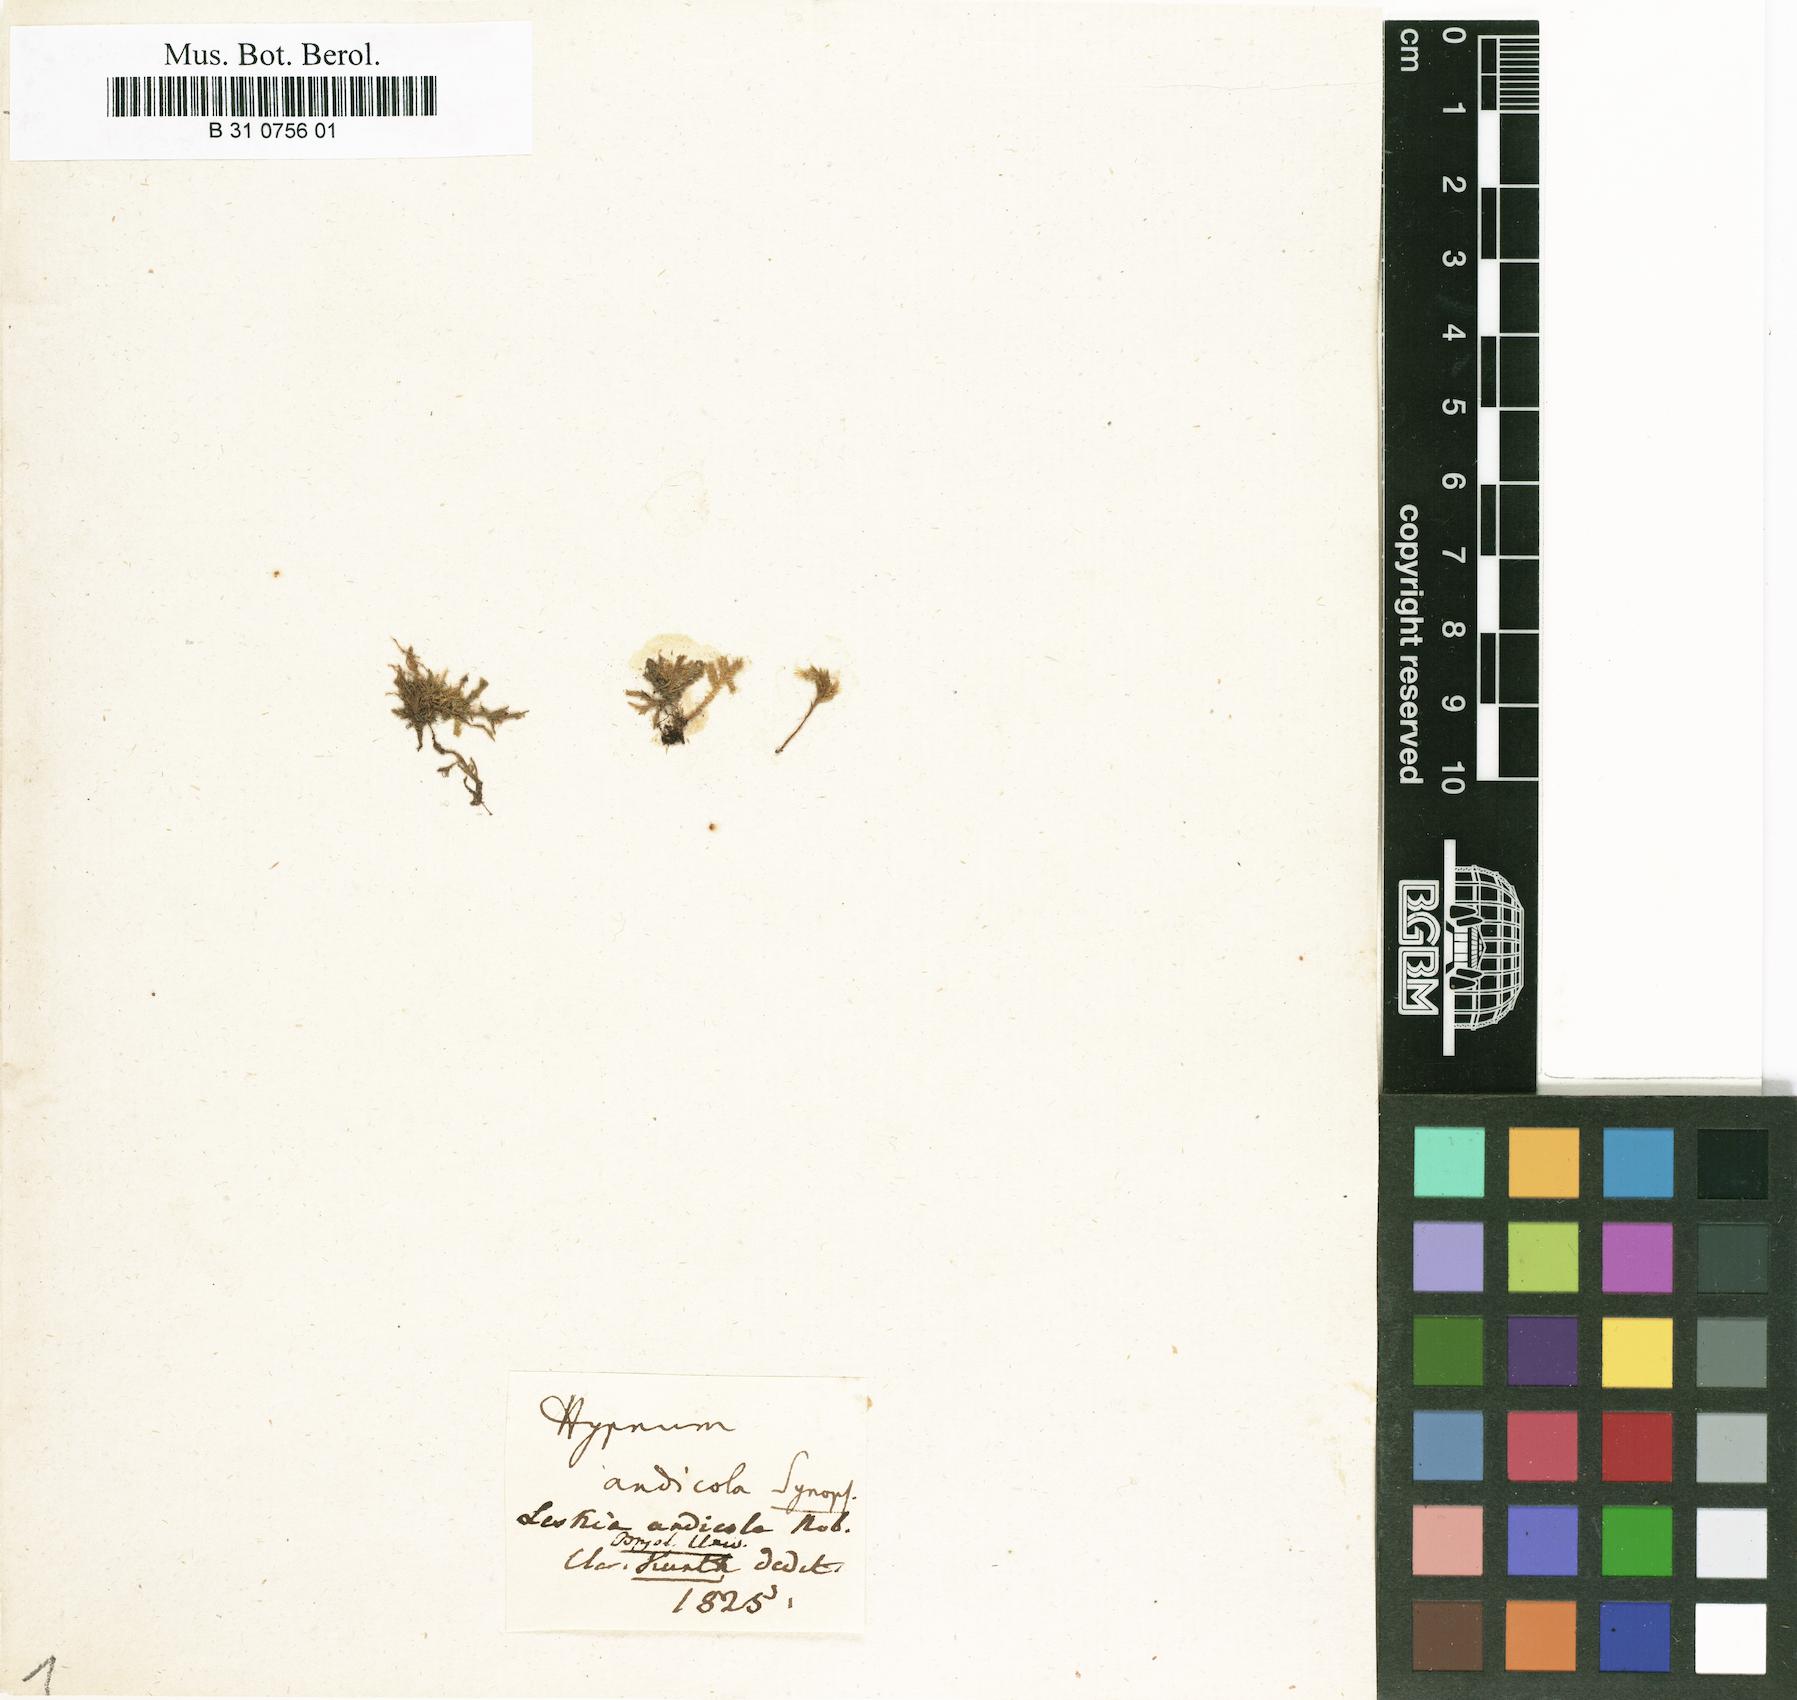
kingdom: Plantae
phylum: Bryophyta
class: Bryopsida
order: Hypnales
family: Hypnaceae
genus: Mittenothamnium
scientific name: Mittenothamnium andicola
